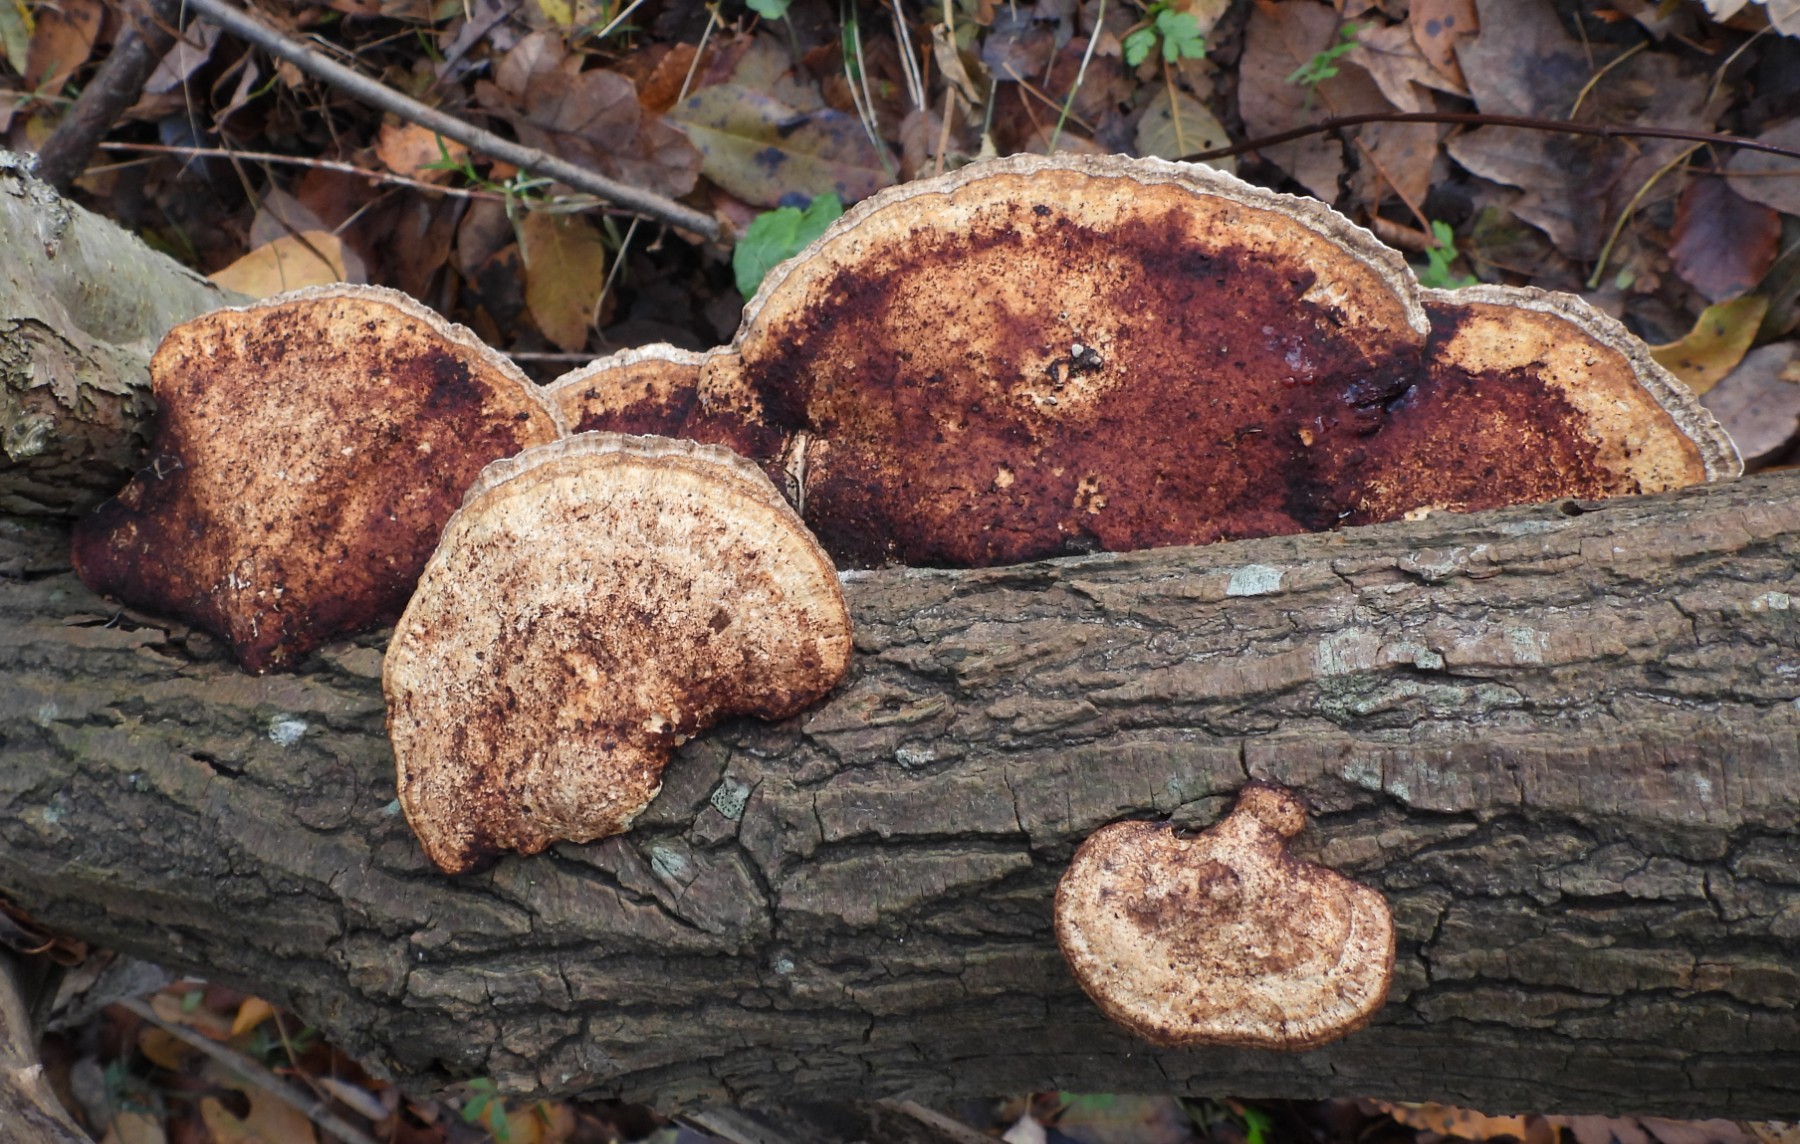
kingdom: Fungi
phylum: Basidiomycota
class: Agaricomycetes
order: Polyporales
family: Polyporaceae
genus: Daedaleopsis
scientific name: Daedaleopsis confragosa
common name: rødmende læderporesvamp
